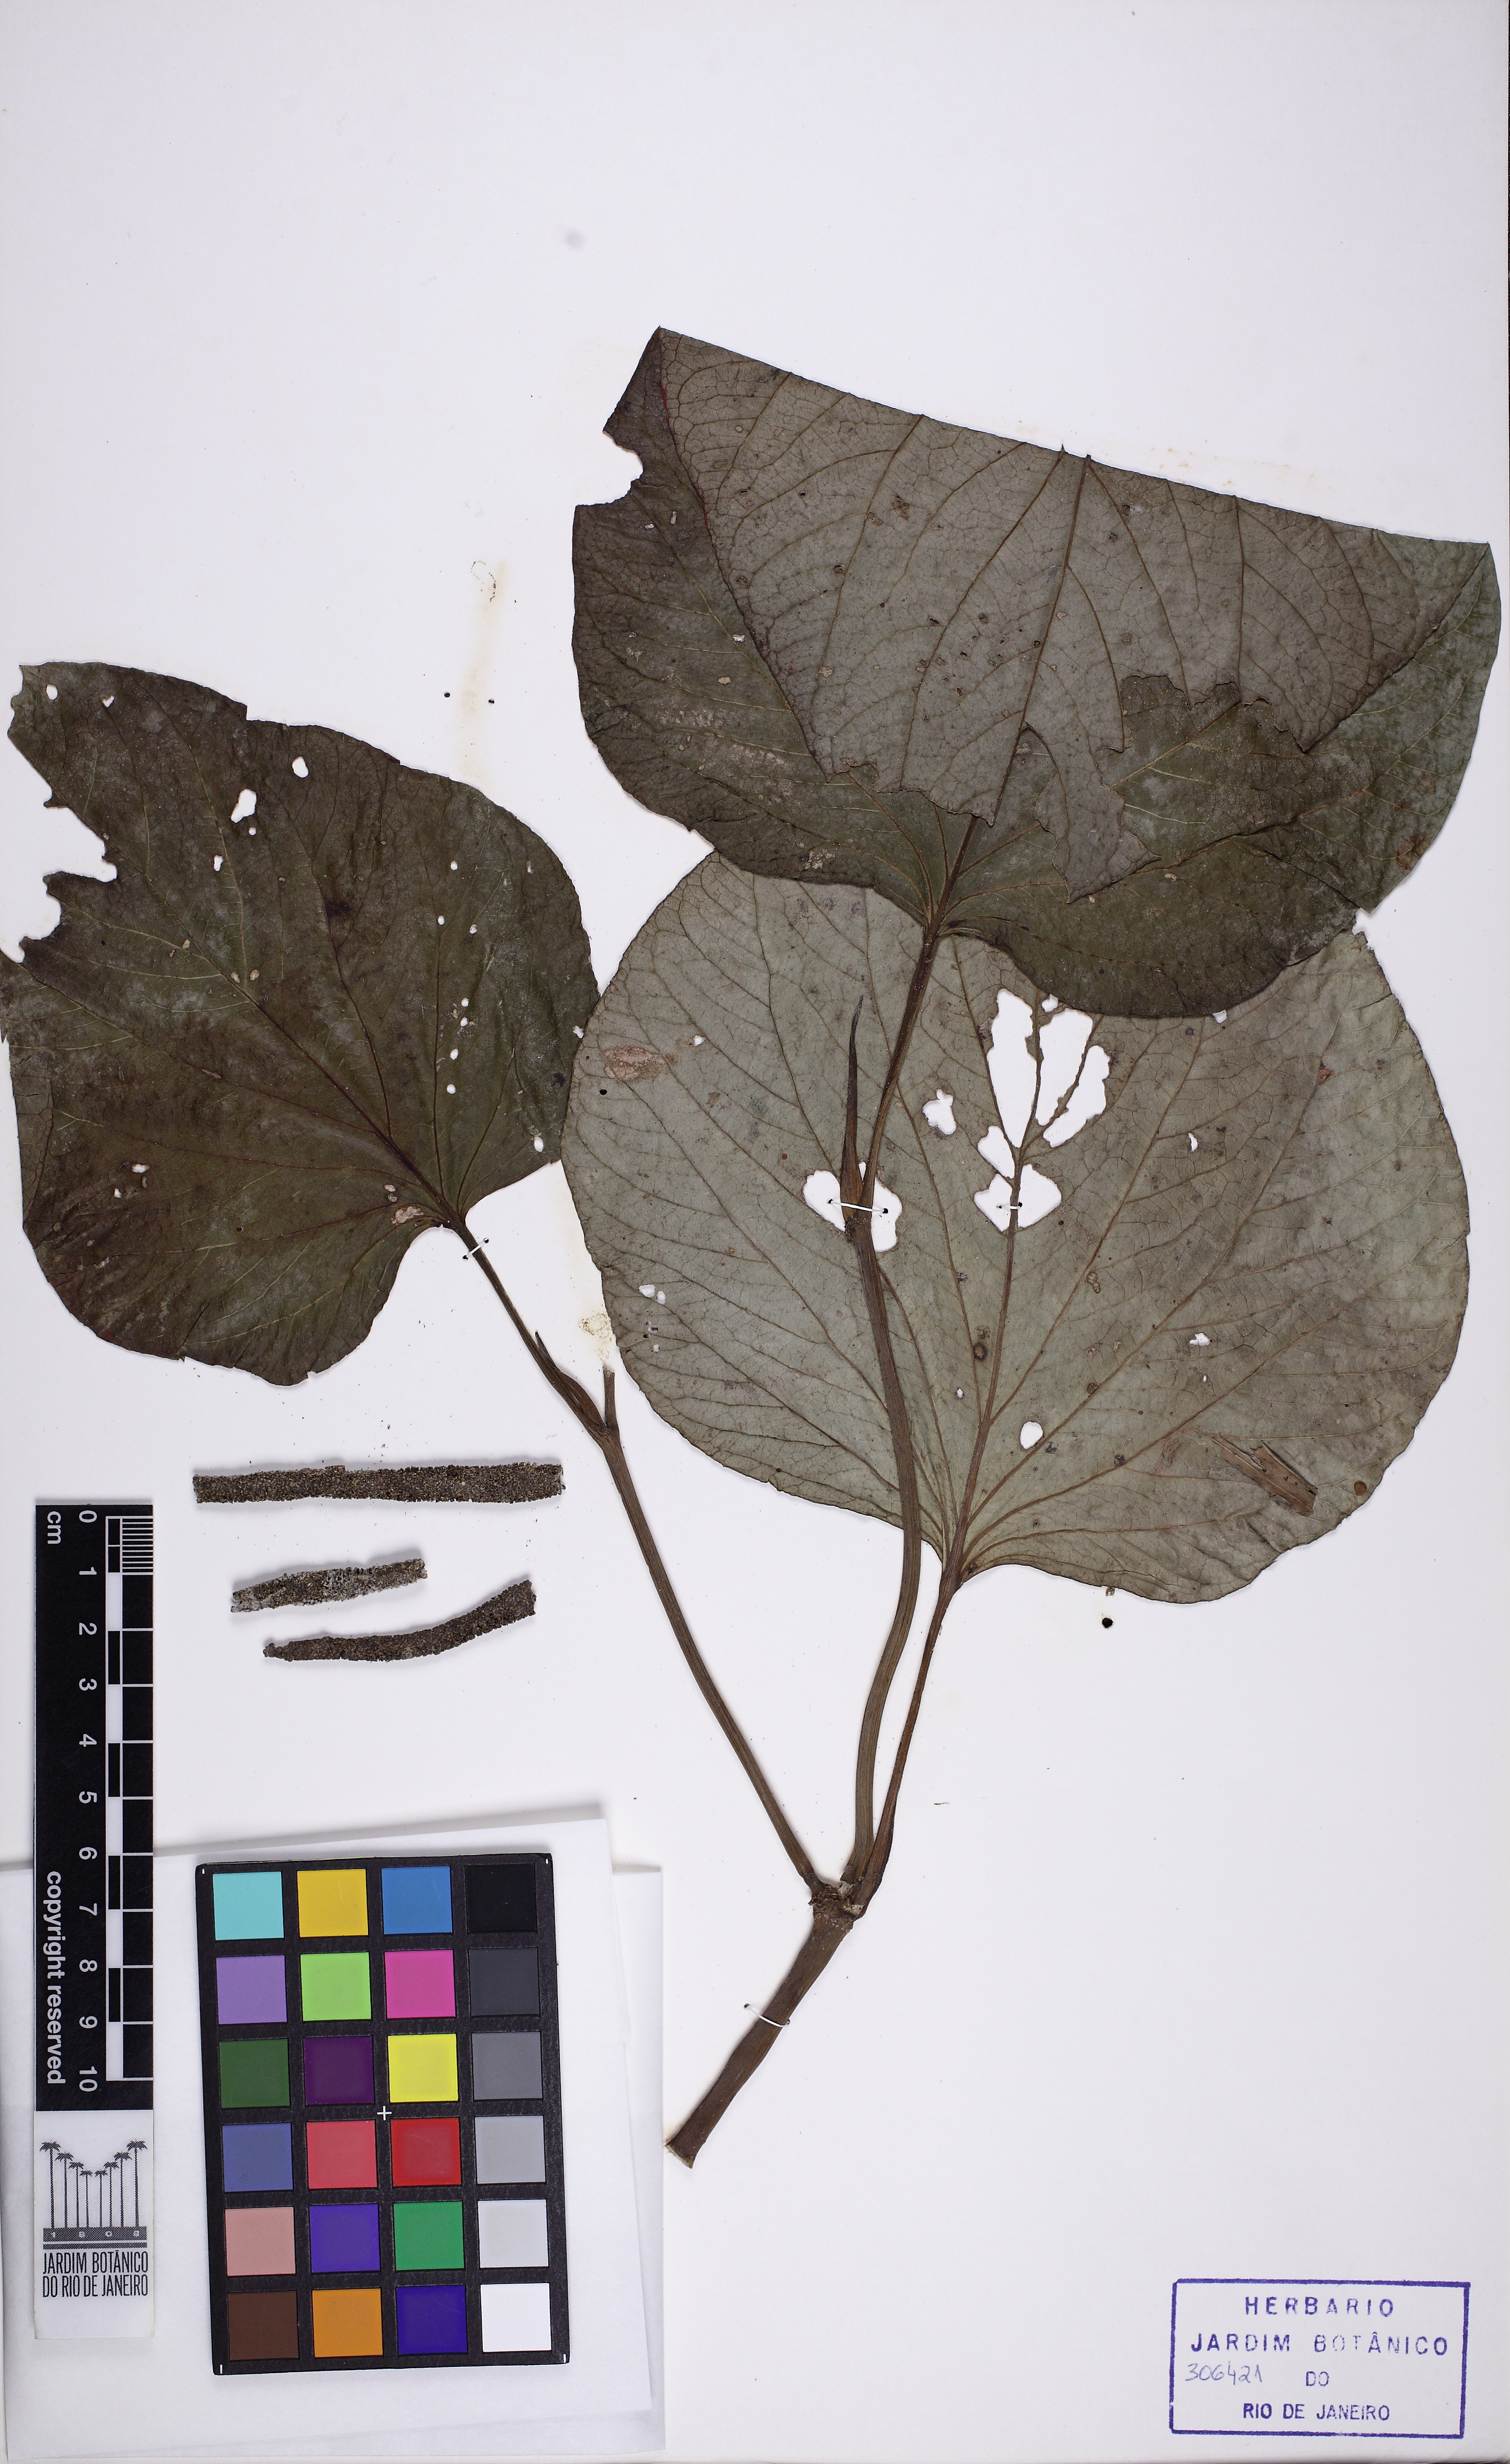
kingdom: Plantae
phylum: Tracheophyta
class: Magnoliopsida
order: Piperales
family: Piperaceae
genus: Piper
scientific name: Piper solmsianum
